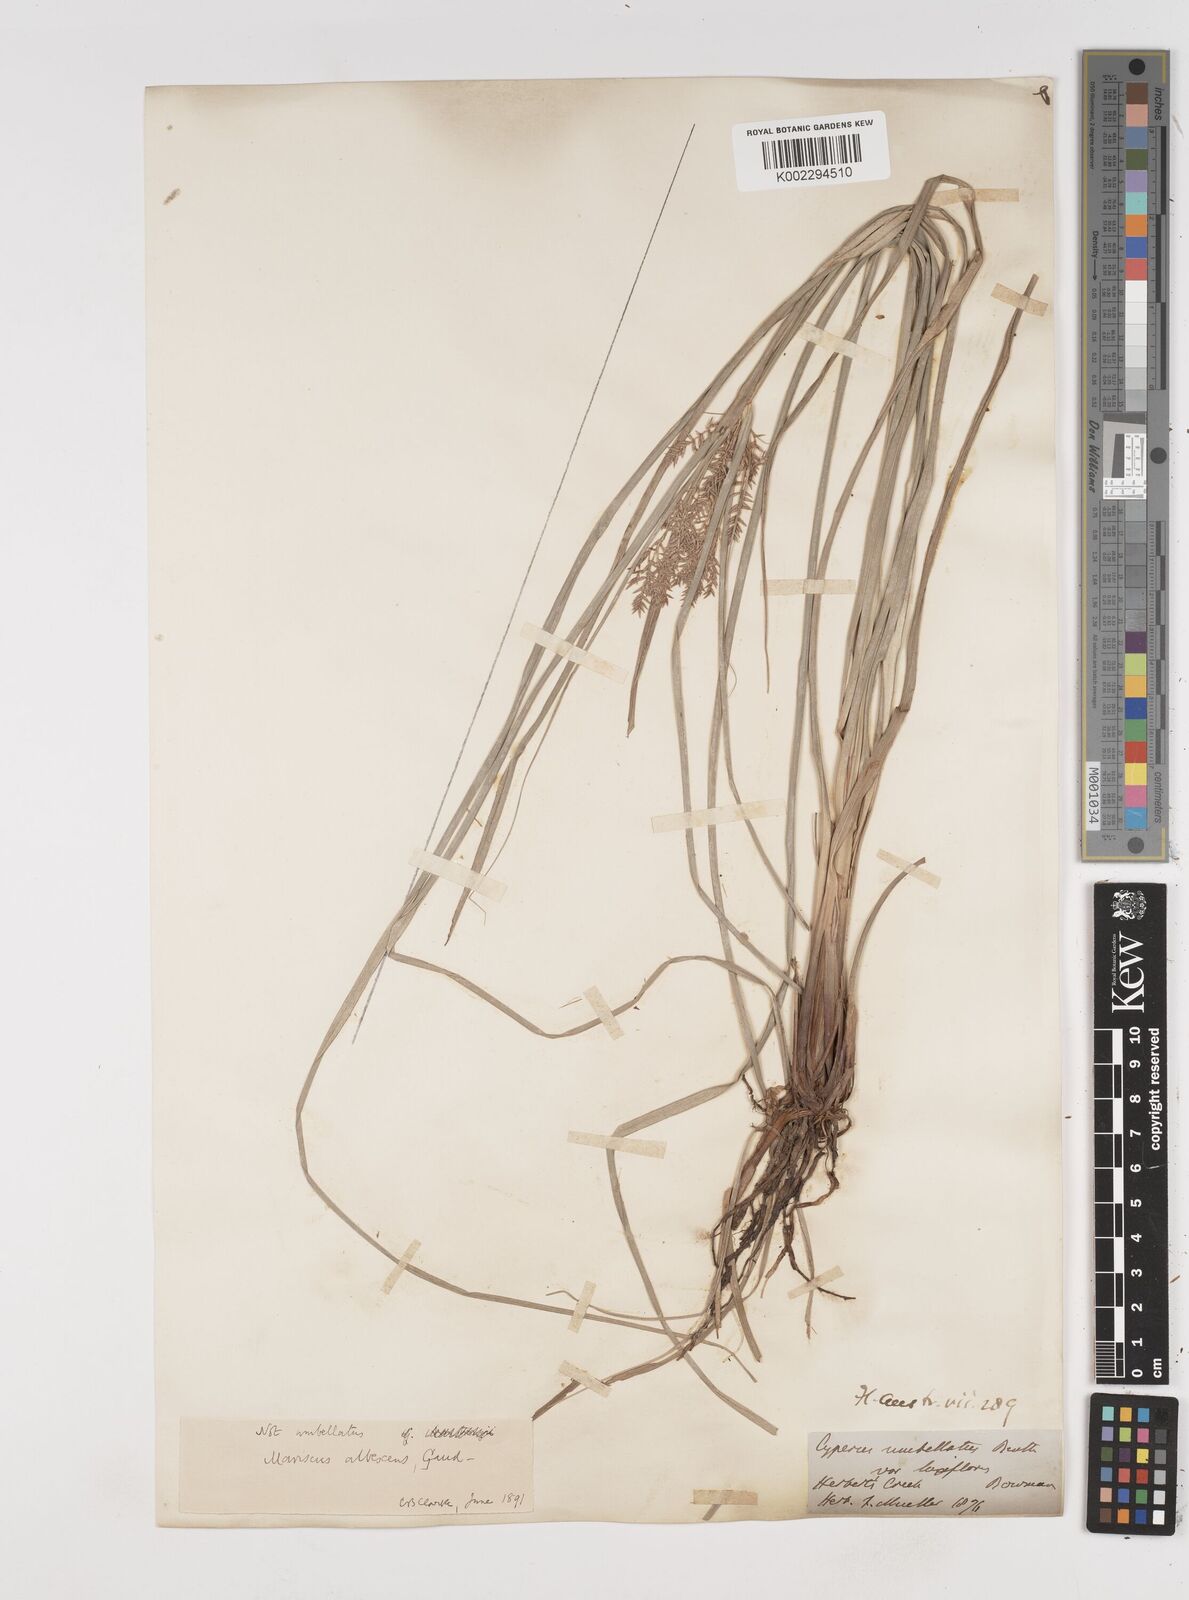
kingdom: Plantae
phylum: Tracheophyta
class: Liliopsida
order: Poales
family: Cyperaceae
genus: Cyperus
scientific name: Cyperus javanicus
